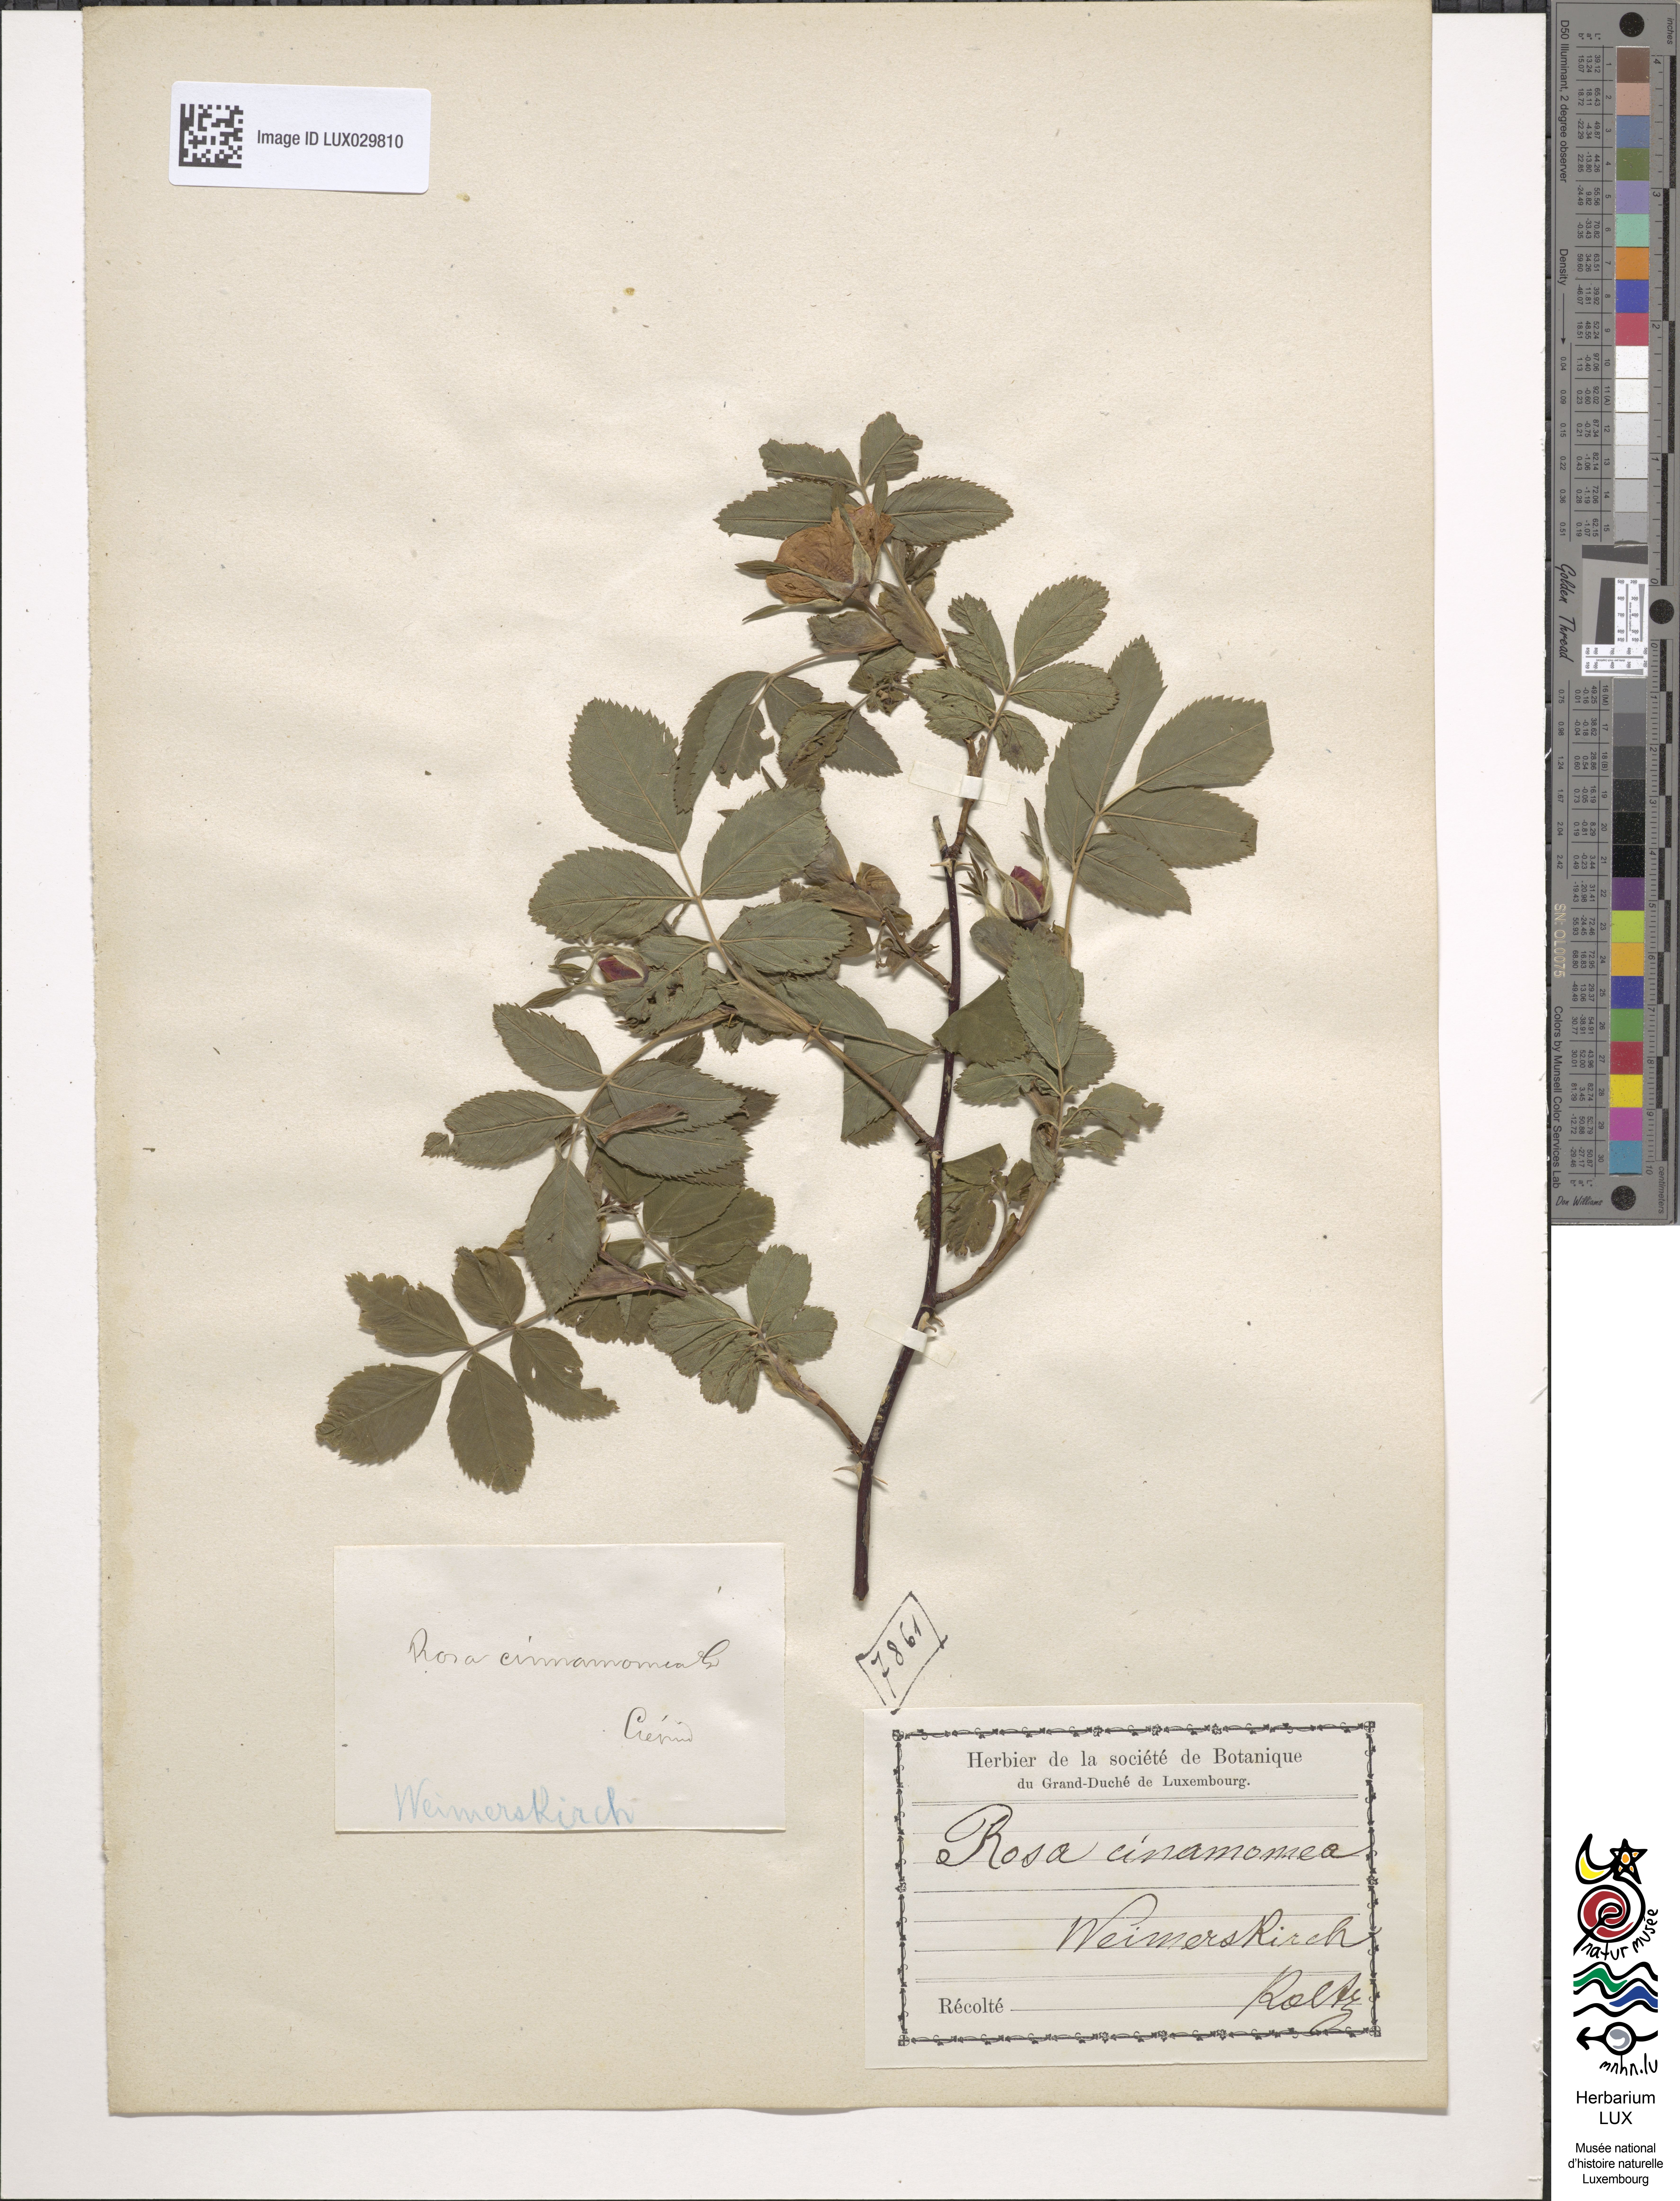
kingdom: Plantae
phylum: Tracheophyta
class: Magnoliopsida
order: Rosales
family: Rosaceae
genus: Rosa
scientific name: Rosa majalis
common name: Cinnamon rose
